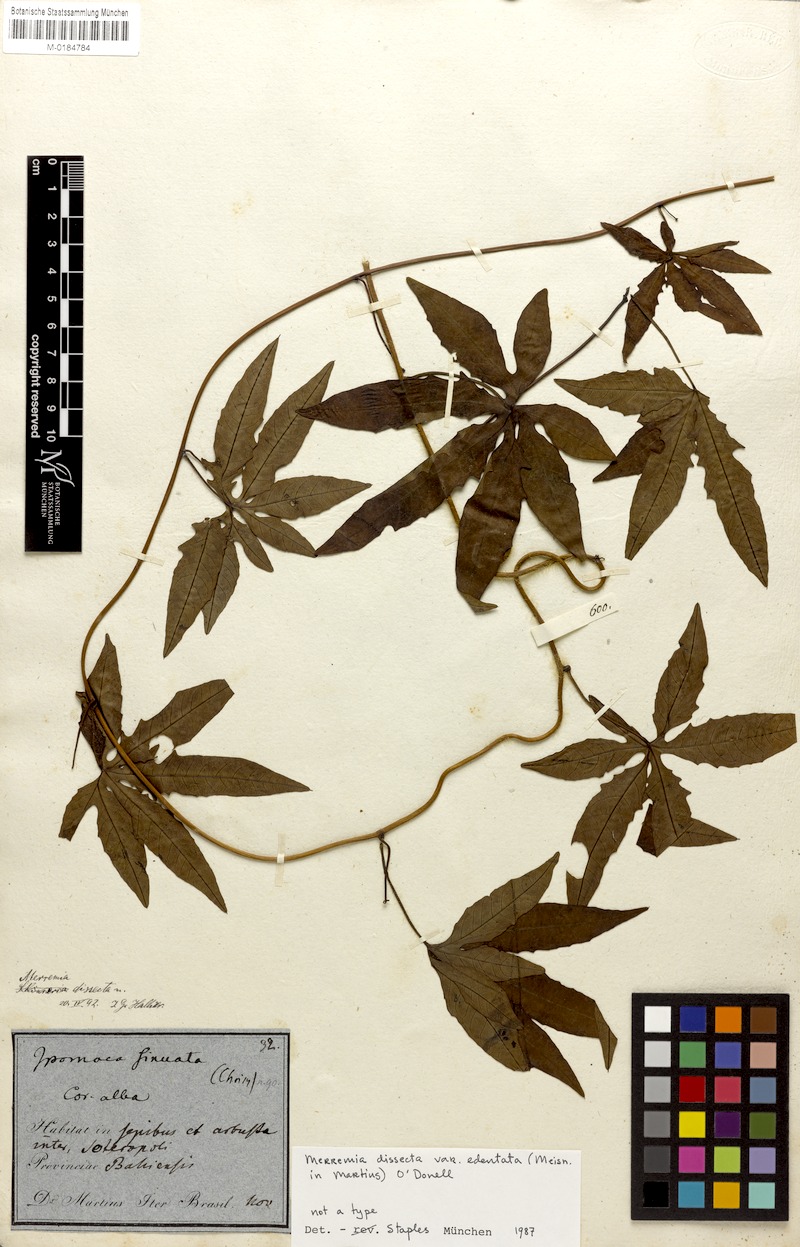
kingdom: Plantae
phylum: Tracheophyta
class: Magnoliopsida
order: Solanales
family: Convolvulaceae
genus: Distimake
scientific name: Distimake dissectus
